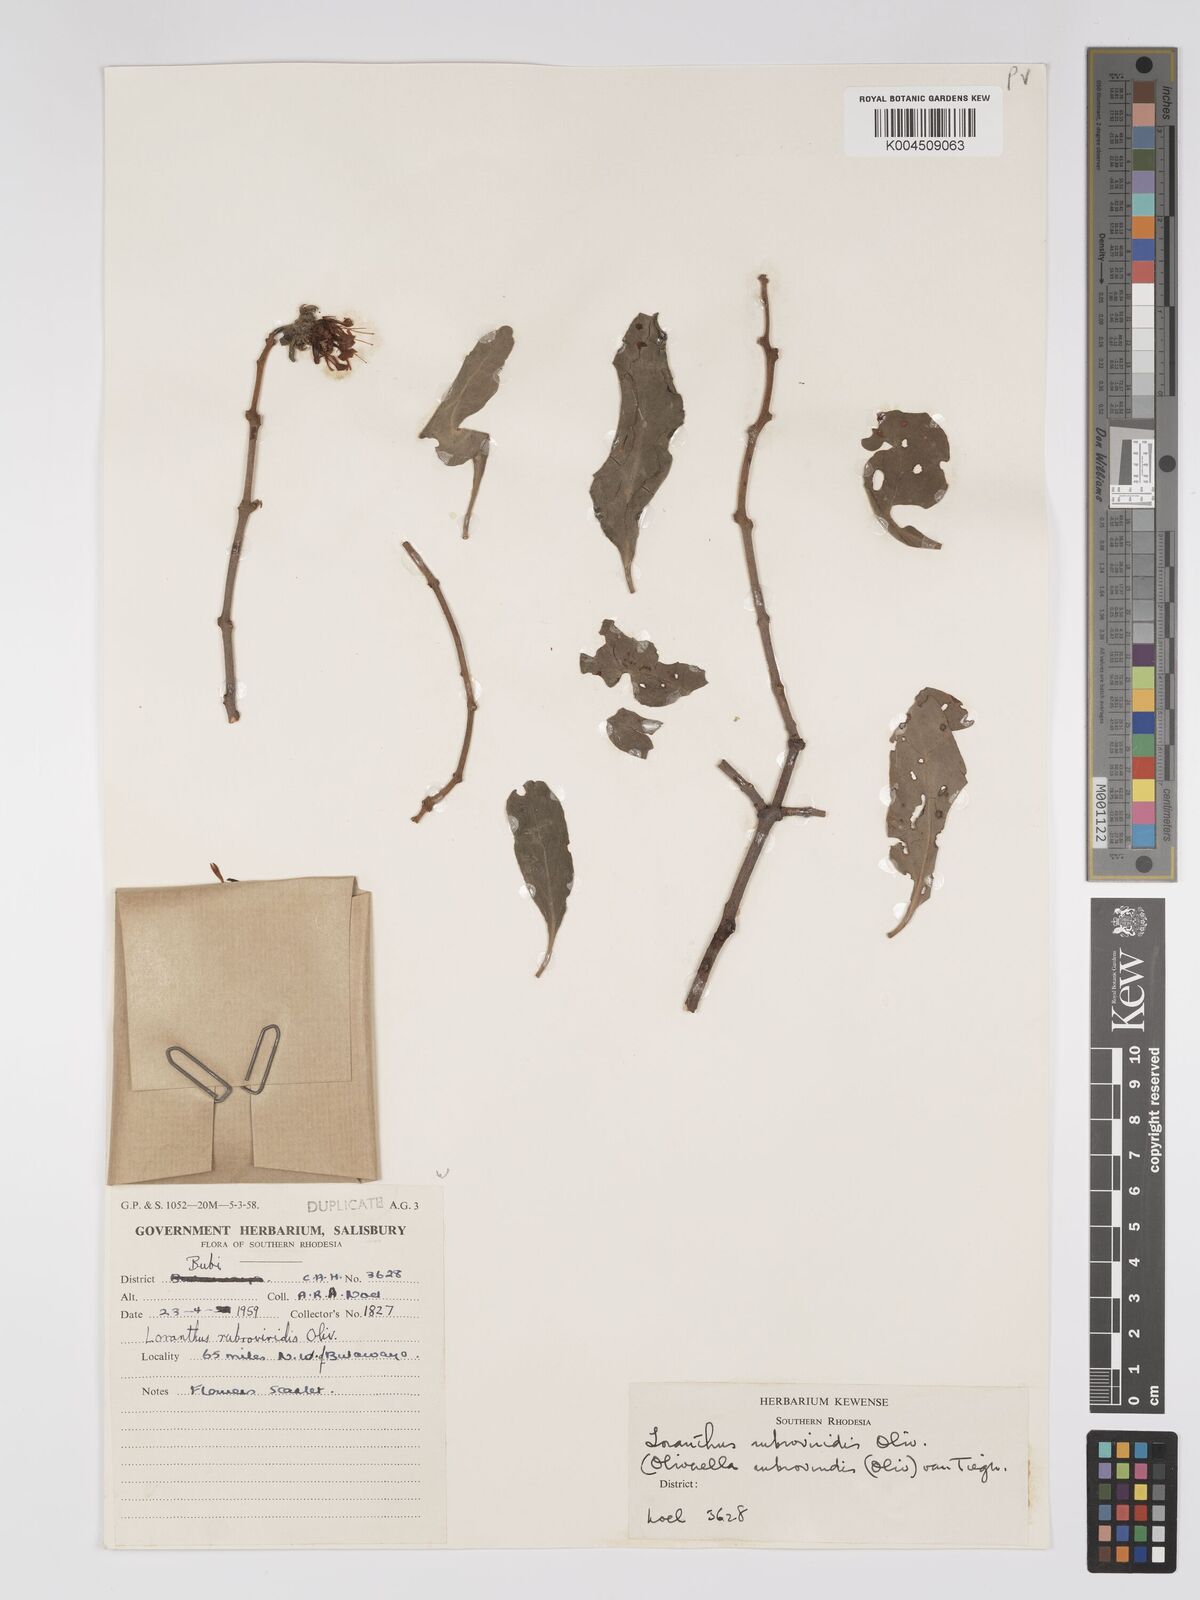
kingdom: Plantae
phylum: Tracheophyta
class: Magnoliopsida
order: Santalales
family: Loranthaceae
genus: Oliverella
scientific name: Oliverella rubroviridis
